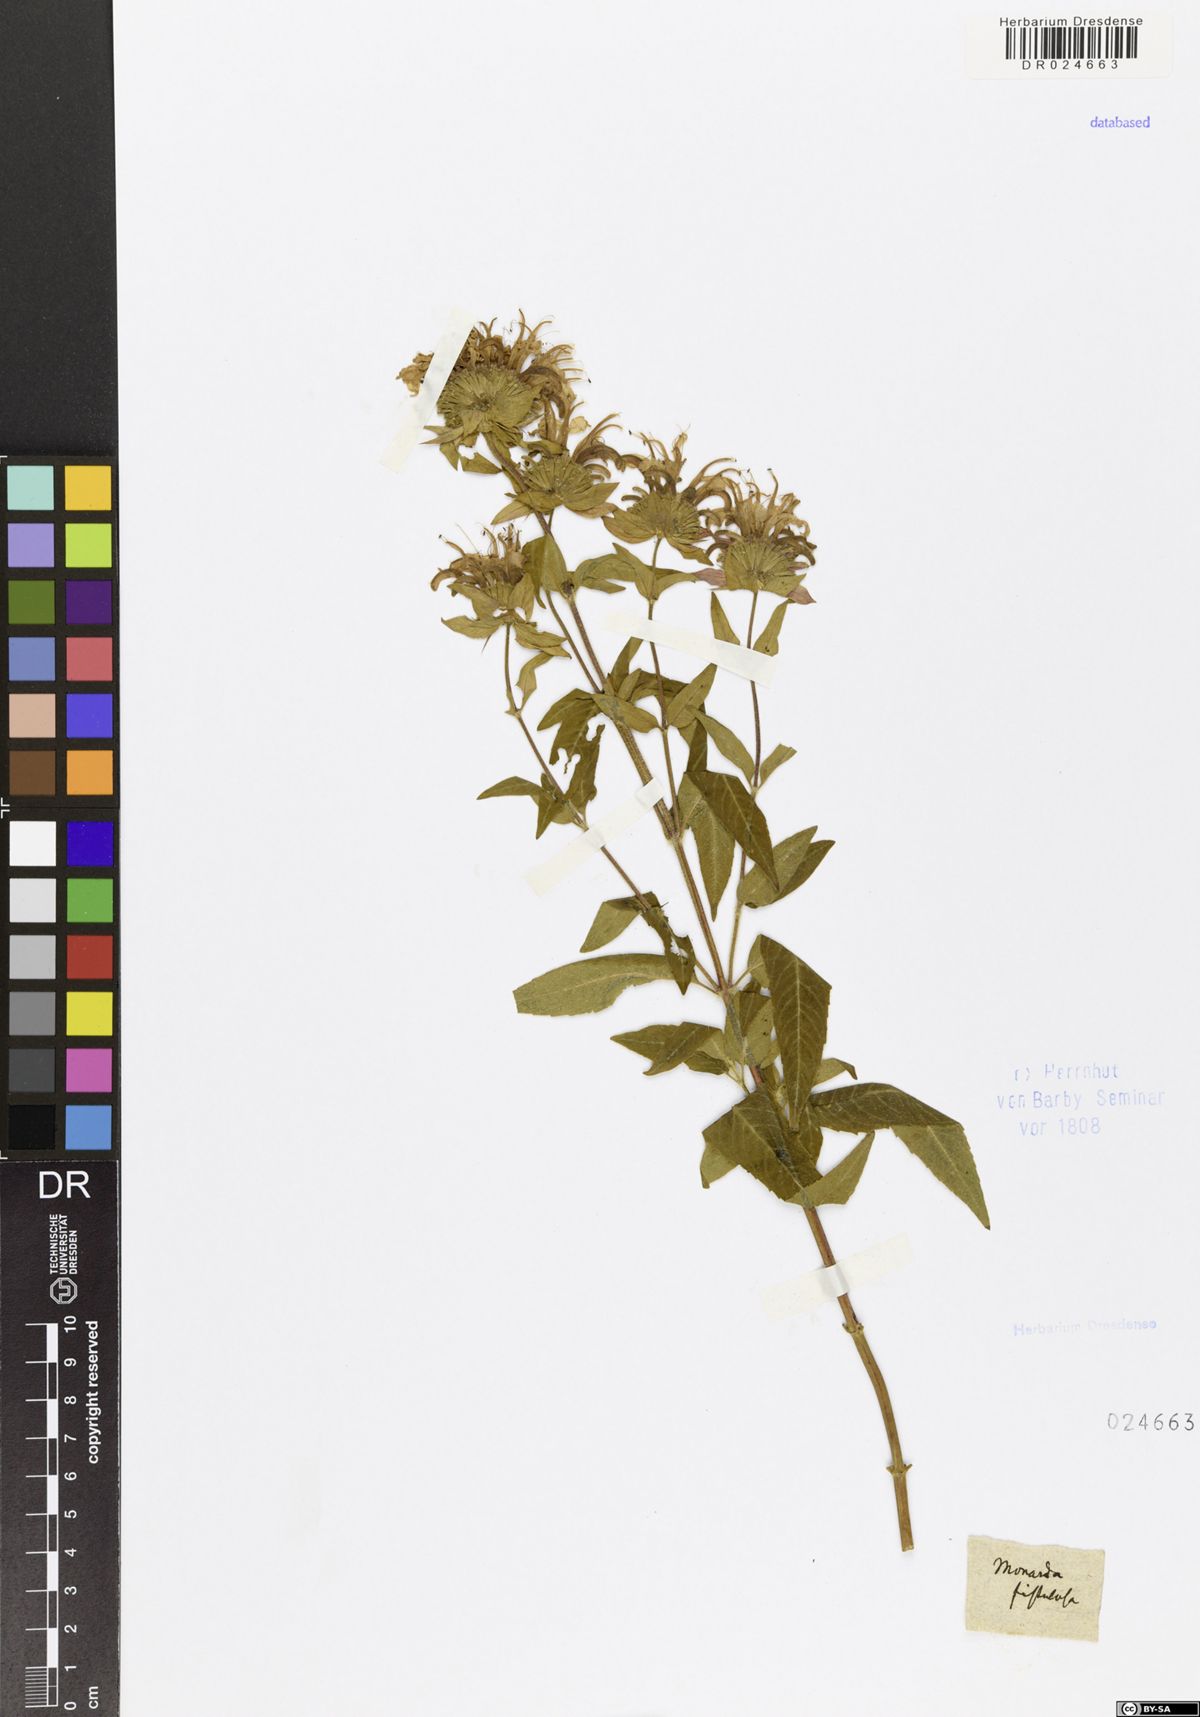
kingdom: Plantae
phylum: Tracheophyta
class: Magnoliopsida
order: Lamiales
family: Lamiaceae
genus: Monarda
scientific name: Monarda fistulosa
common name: Purple beebalm
